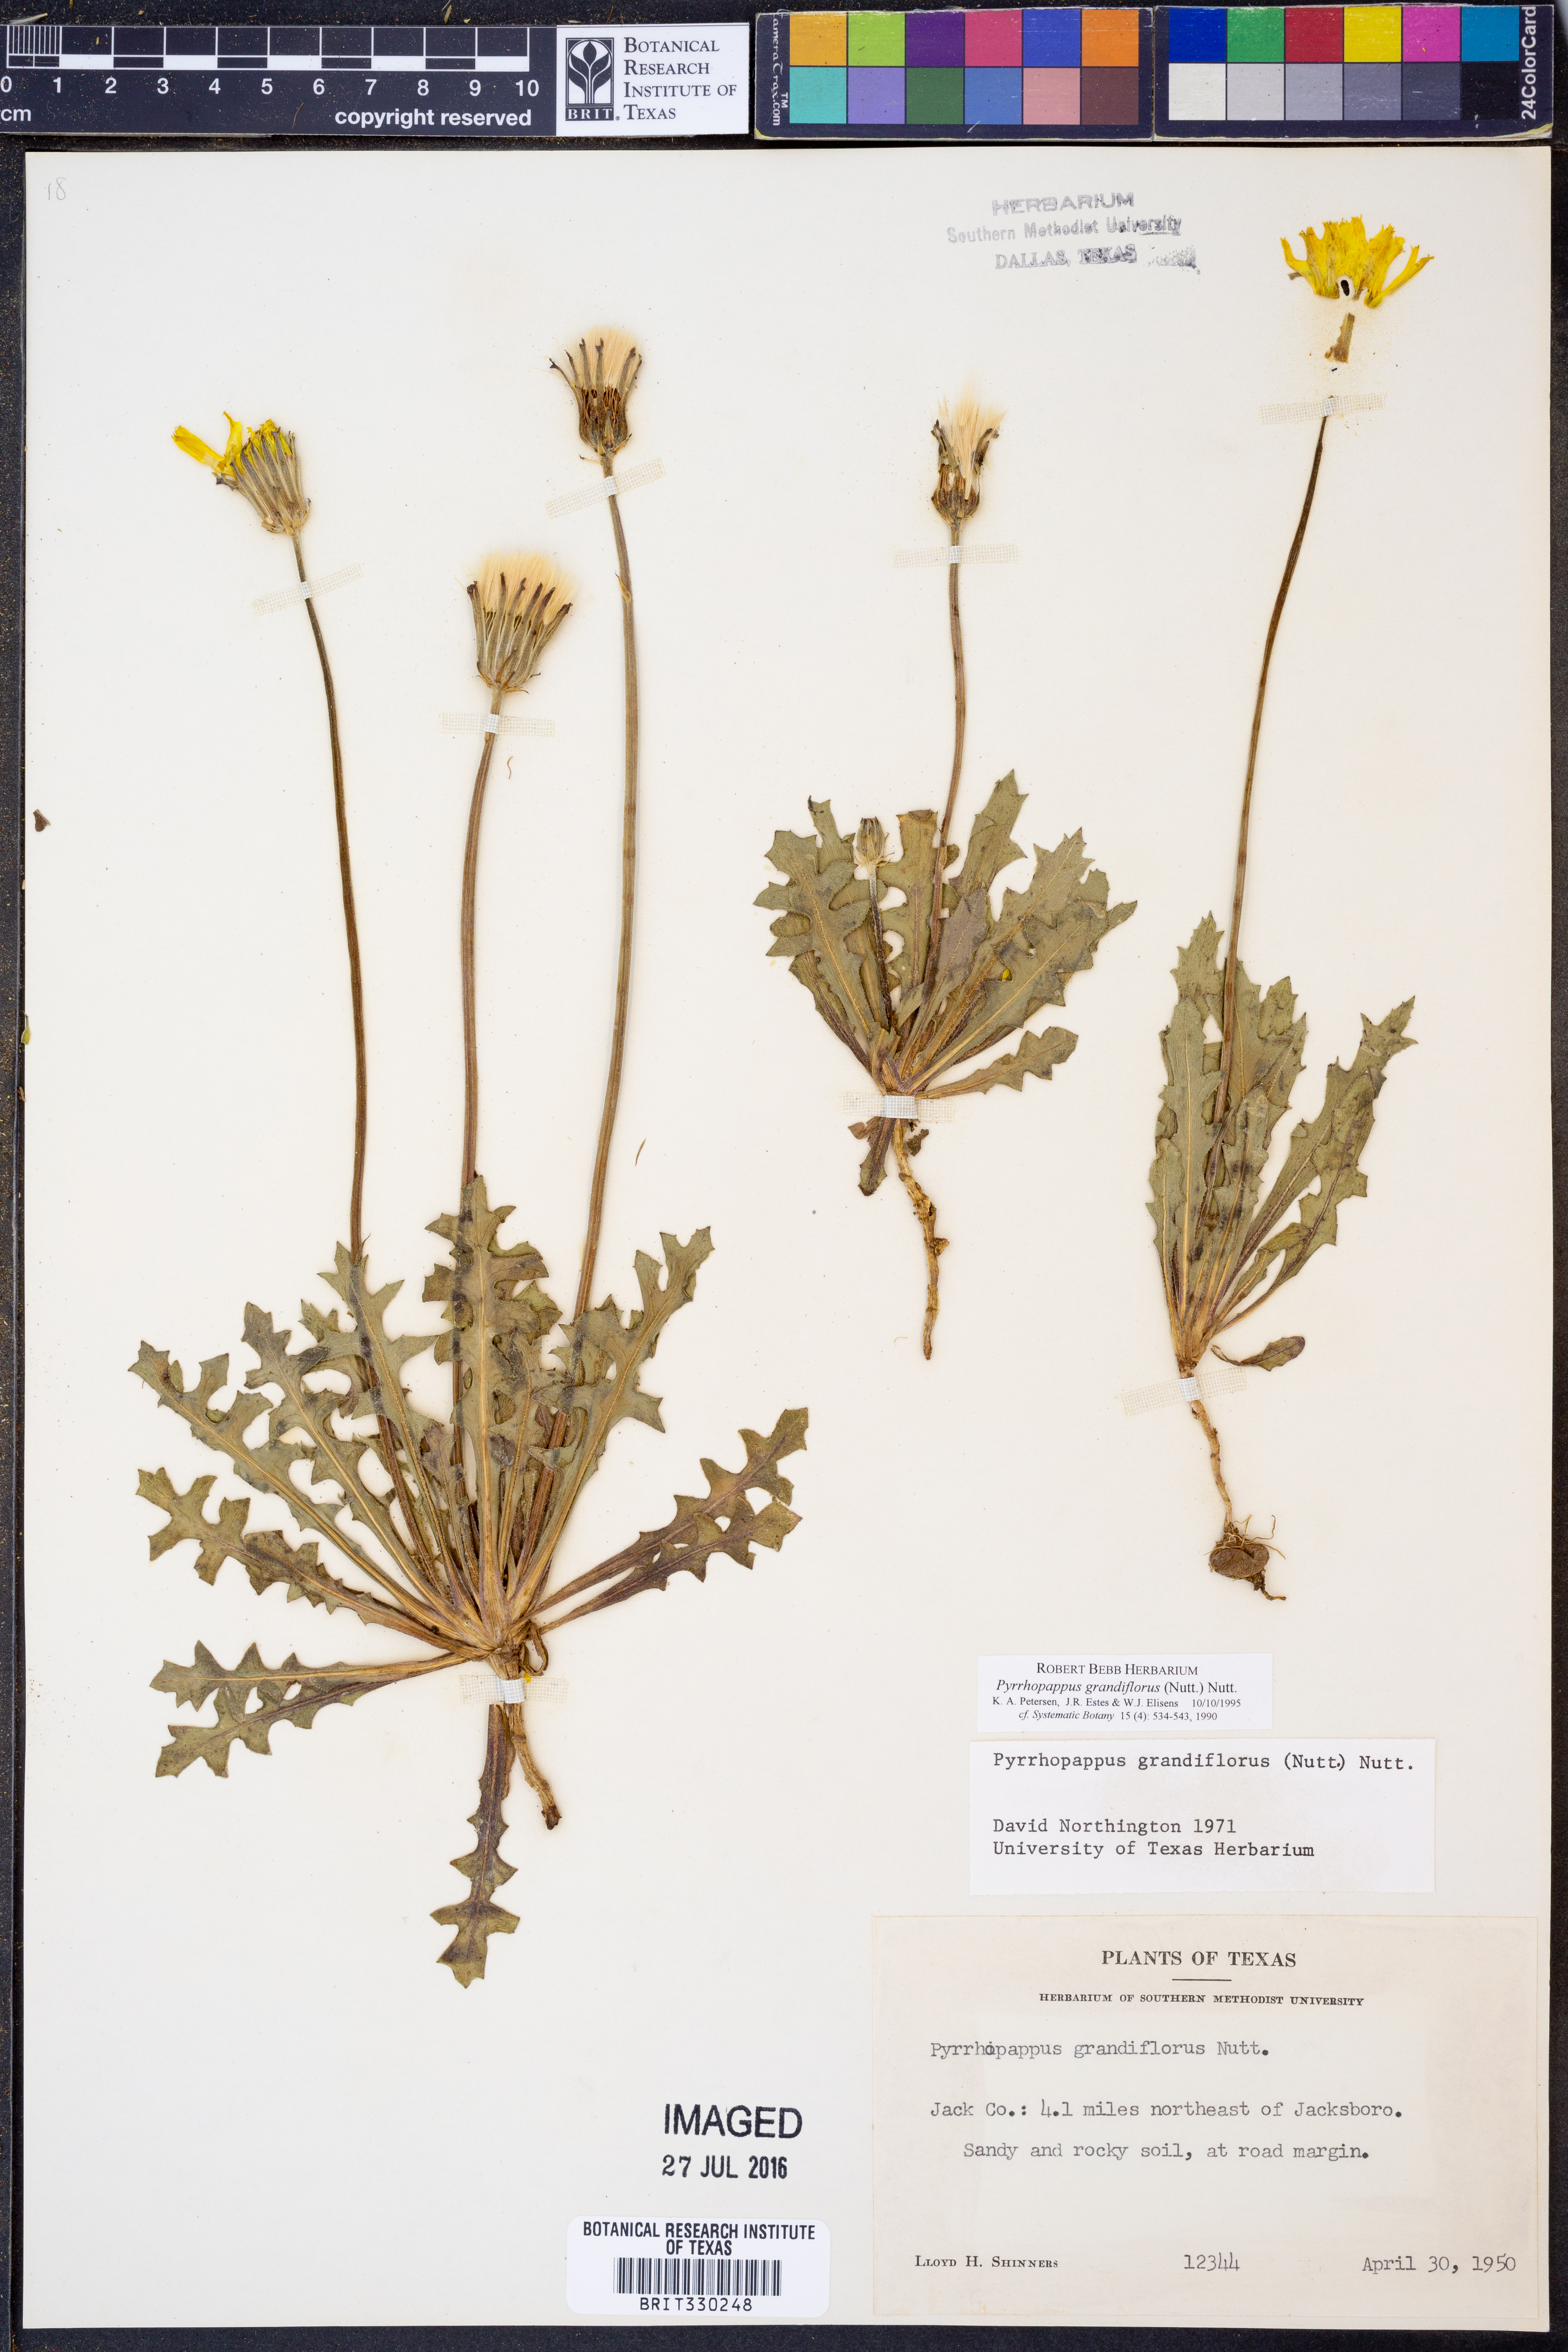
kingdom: Plantae
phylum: Tracheophyta
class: Magnoliopsida
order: Asterales
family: Asteraceae
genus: Pyrrhopappus
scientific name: Pyrrhopappus grandiflorus
